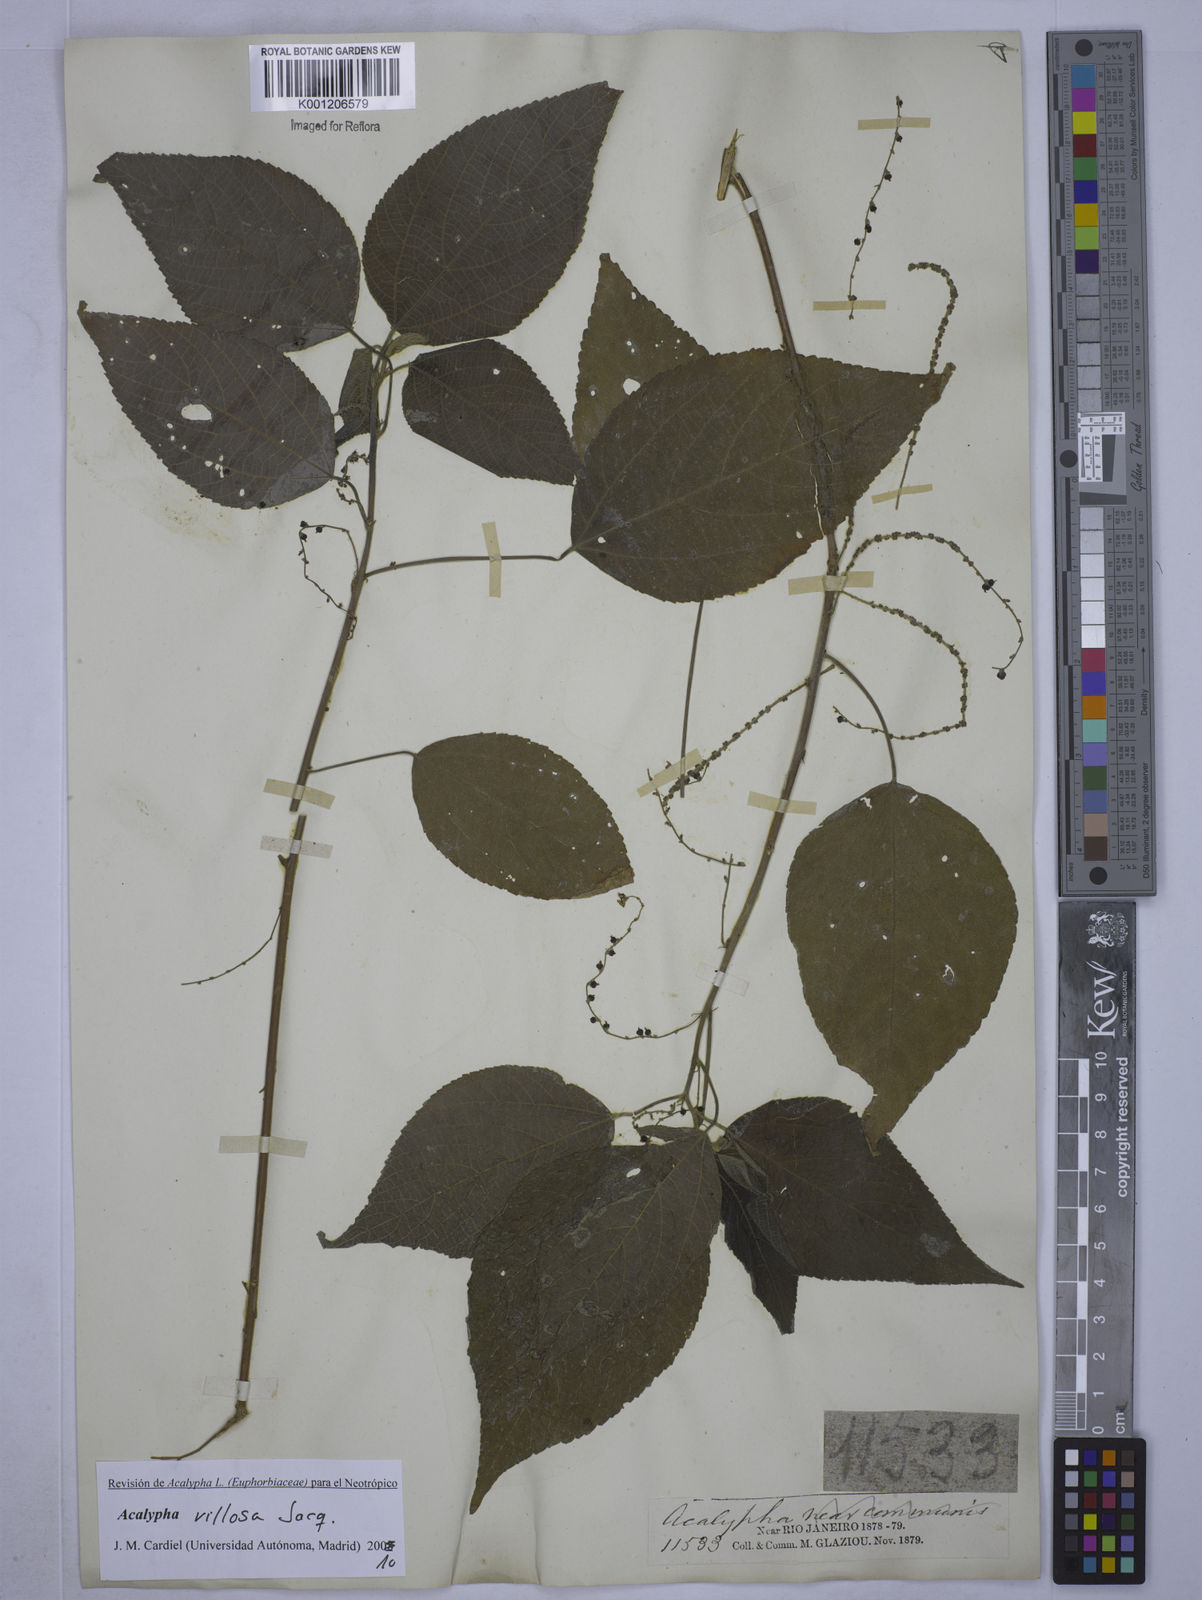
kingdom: Plantae
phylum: Tracheophyta
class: Magnoliopsida
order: Malpighiales
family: Euphorbiaceae
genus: Acalypha
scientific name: Acalypha villosa
